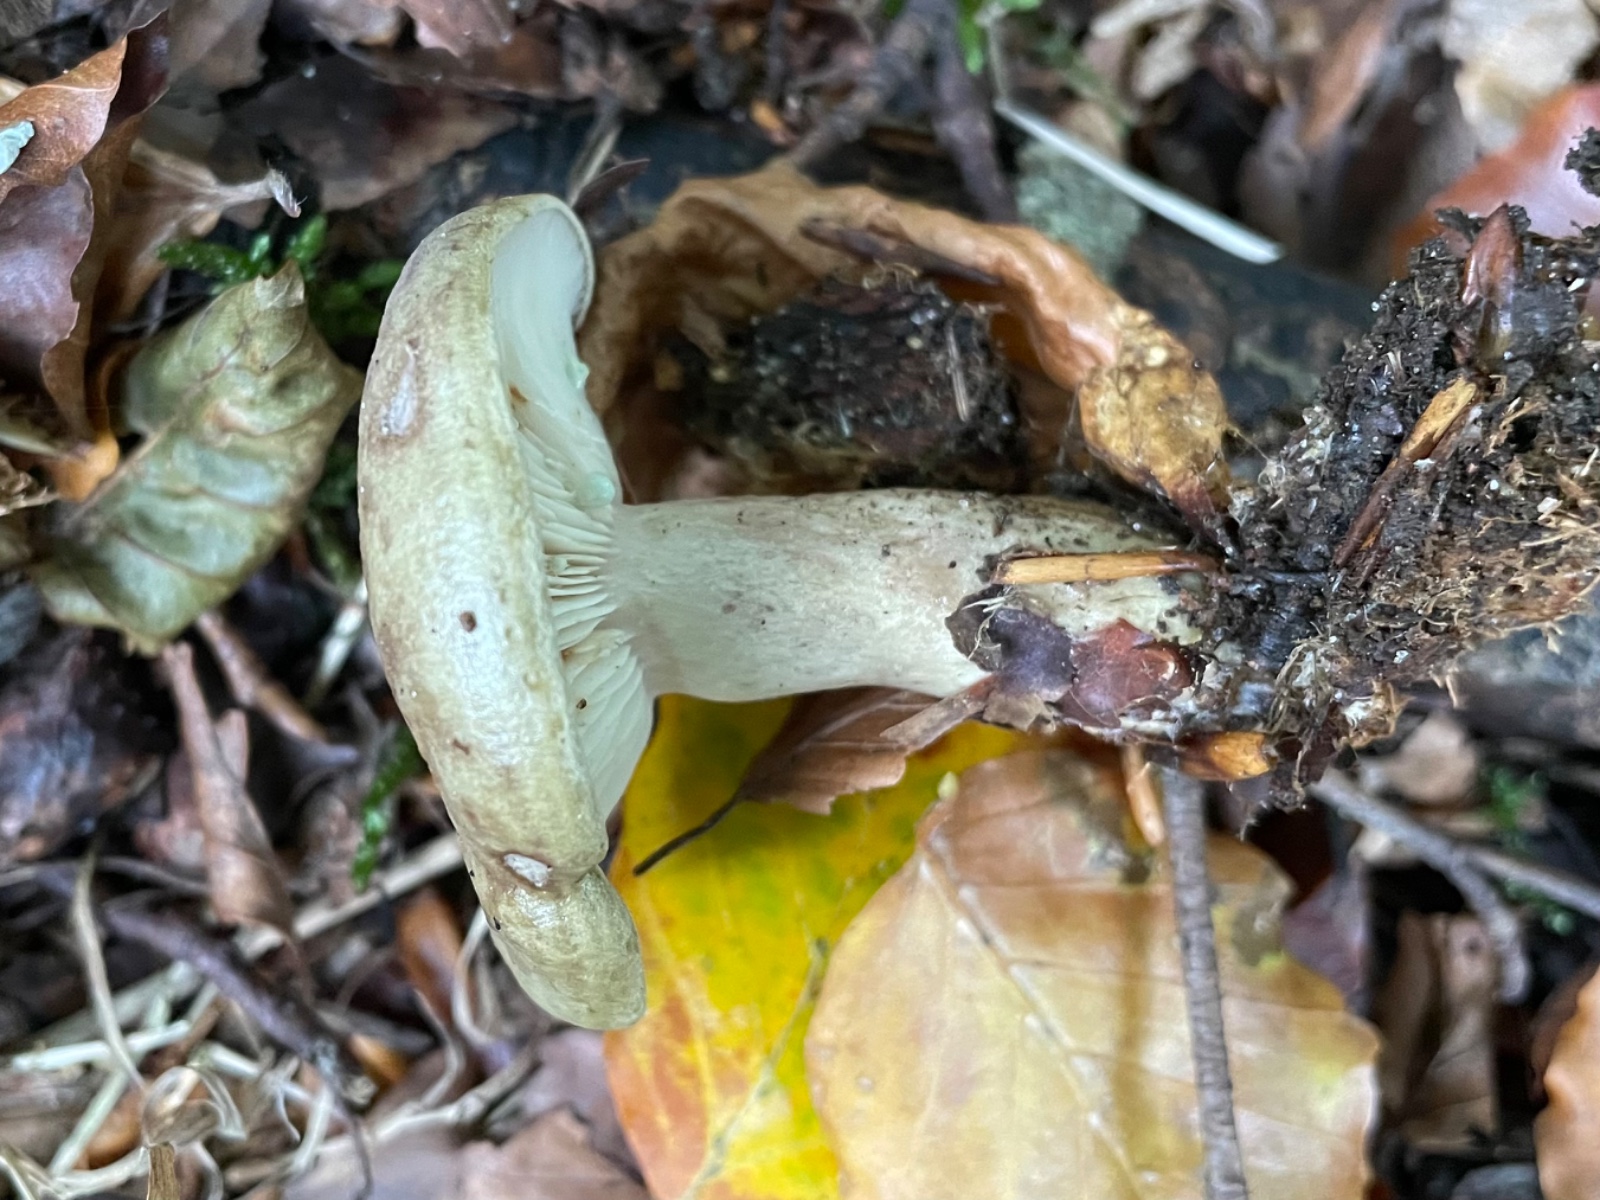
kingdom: Fungi
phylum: Basidiomycota
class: Agaricomycetes
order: Russulales
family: Russulaceae
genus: Lactarius
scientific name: Lactarius blennius
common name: dråbeplettet mælkehat
